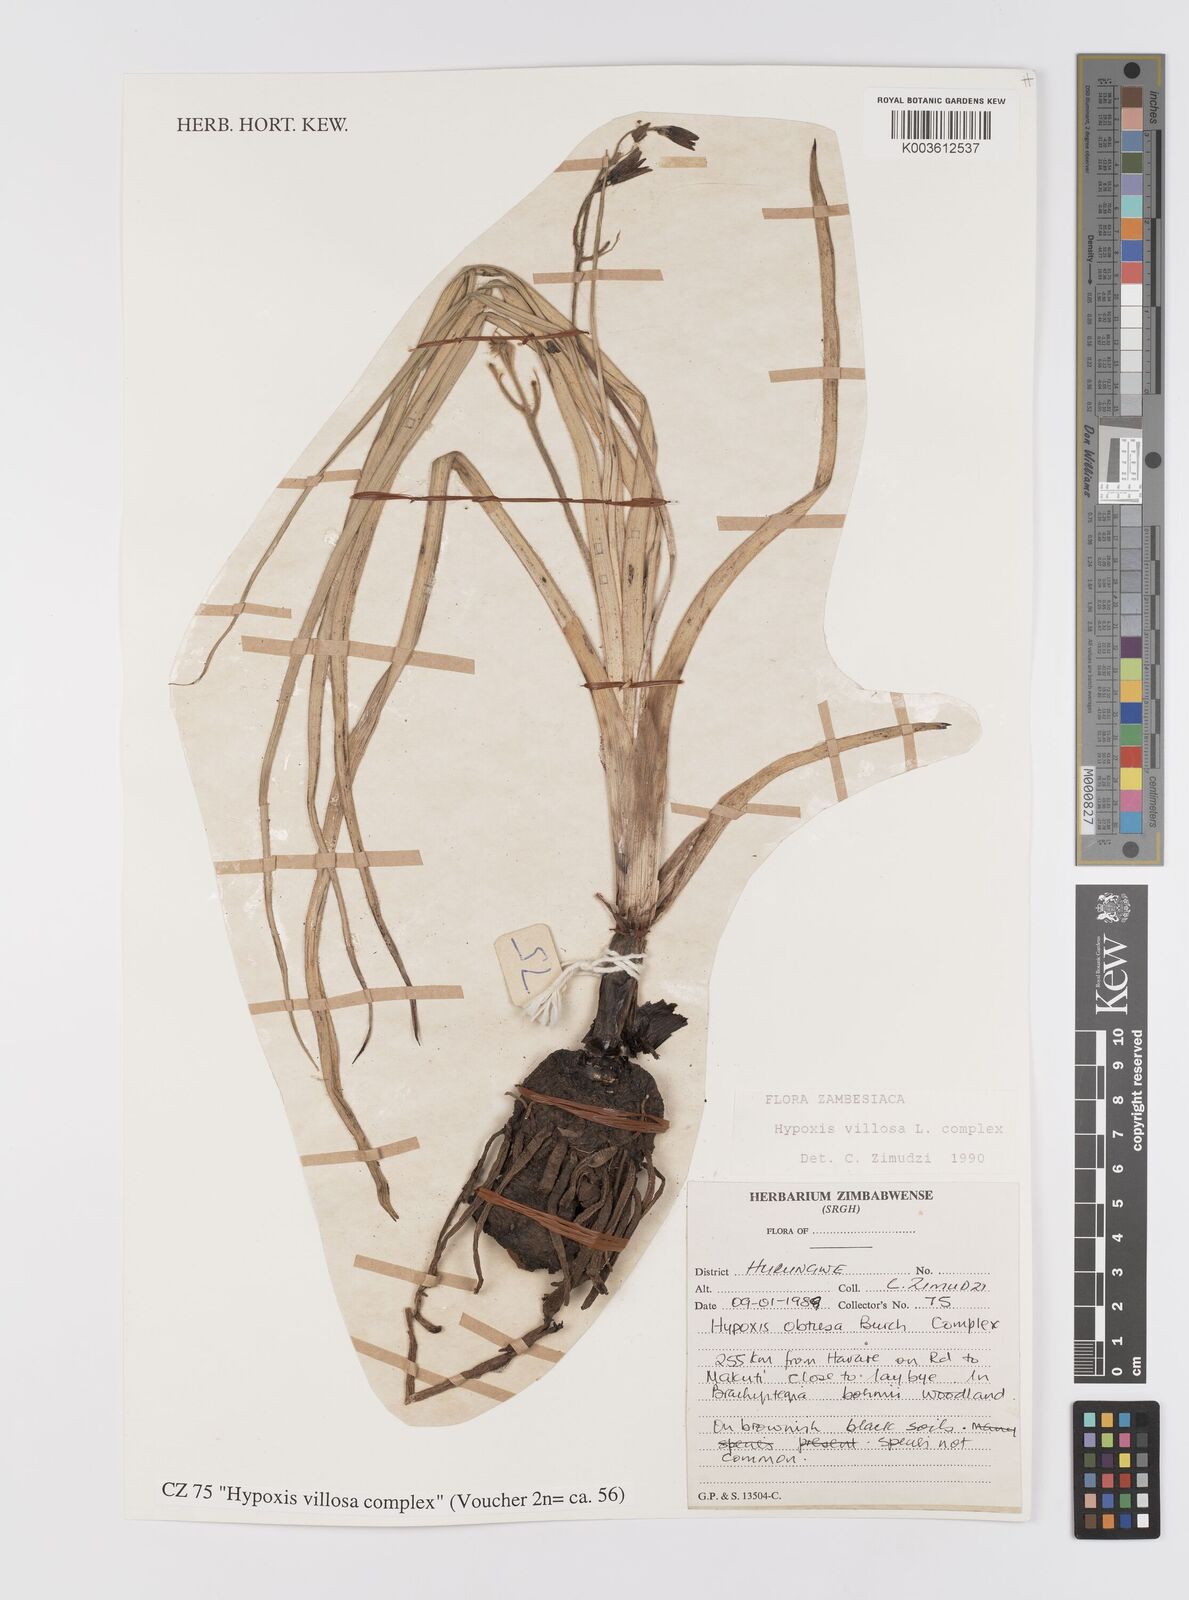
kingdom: Plantae
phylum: Tracheophyta
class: Liliopsida
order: Asparagales
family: Hypoxidaceae
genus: Hypoxis
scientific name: Hypoxis villosa
